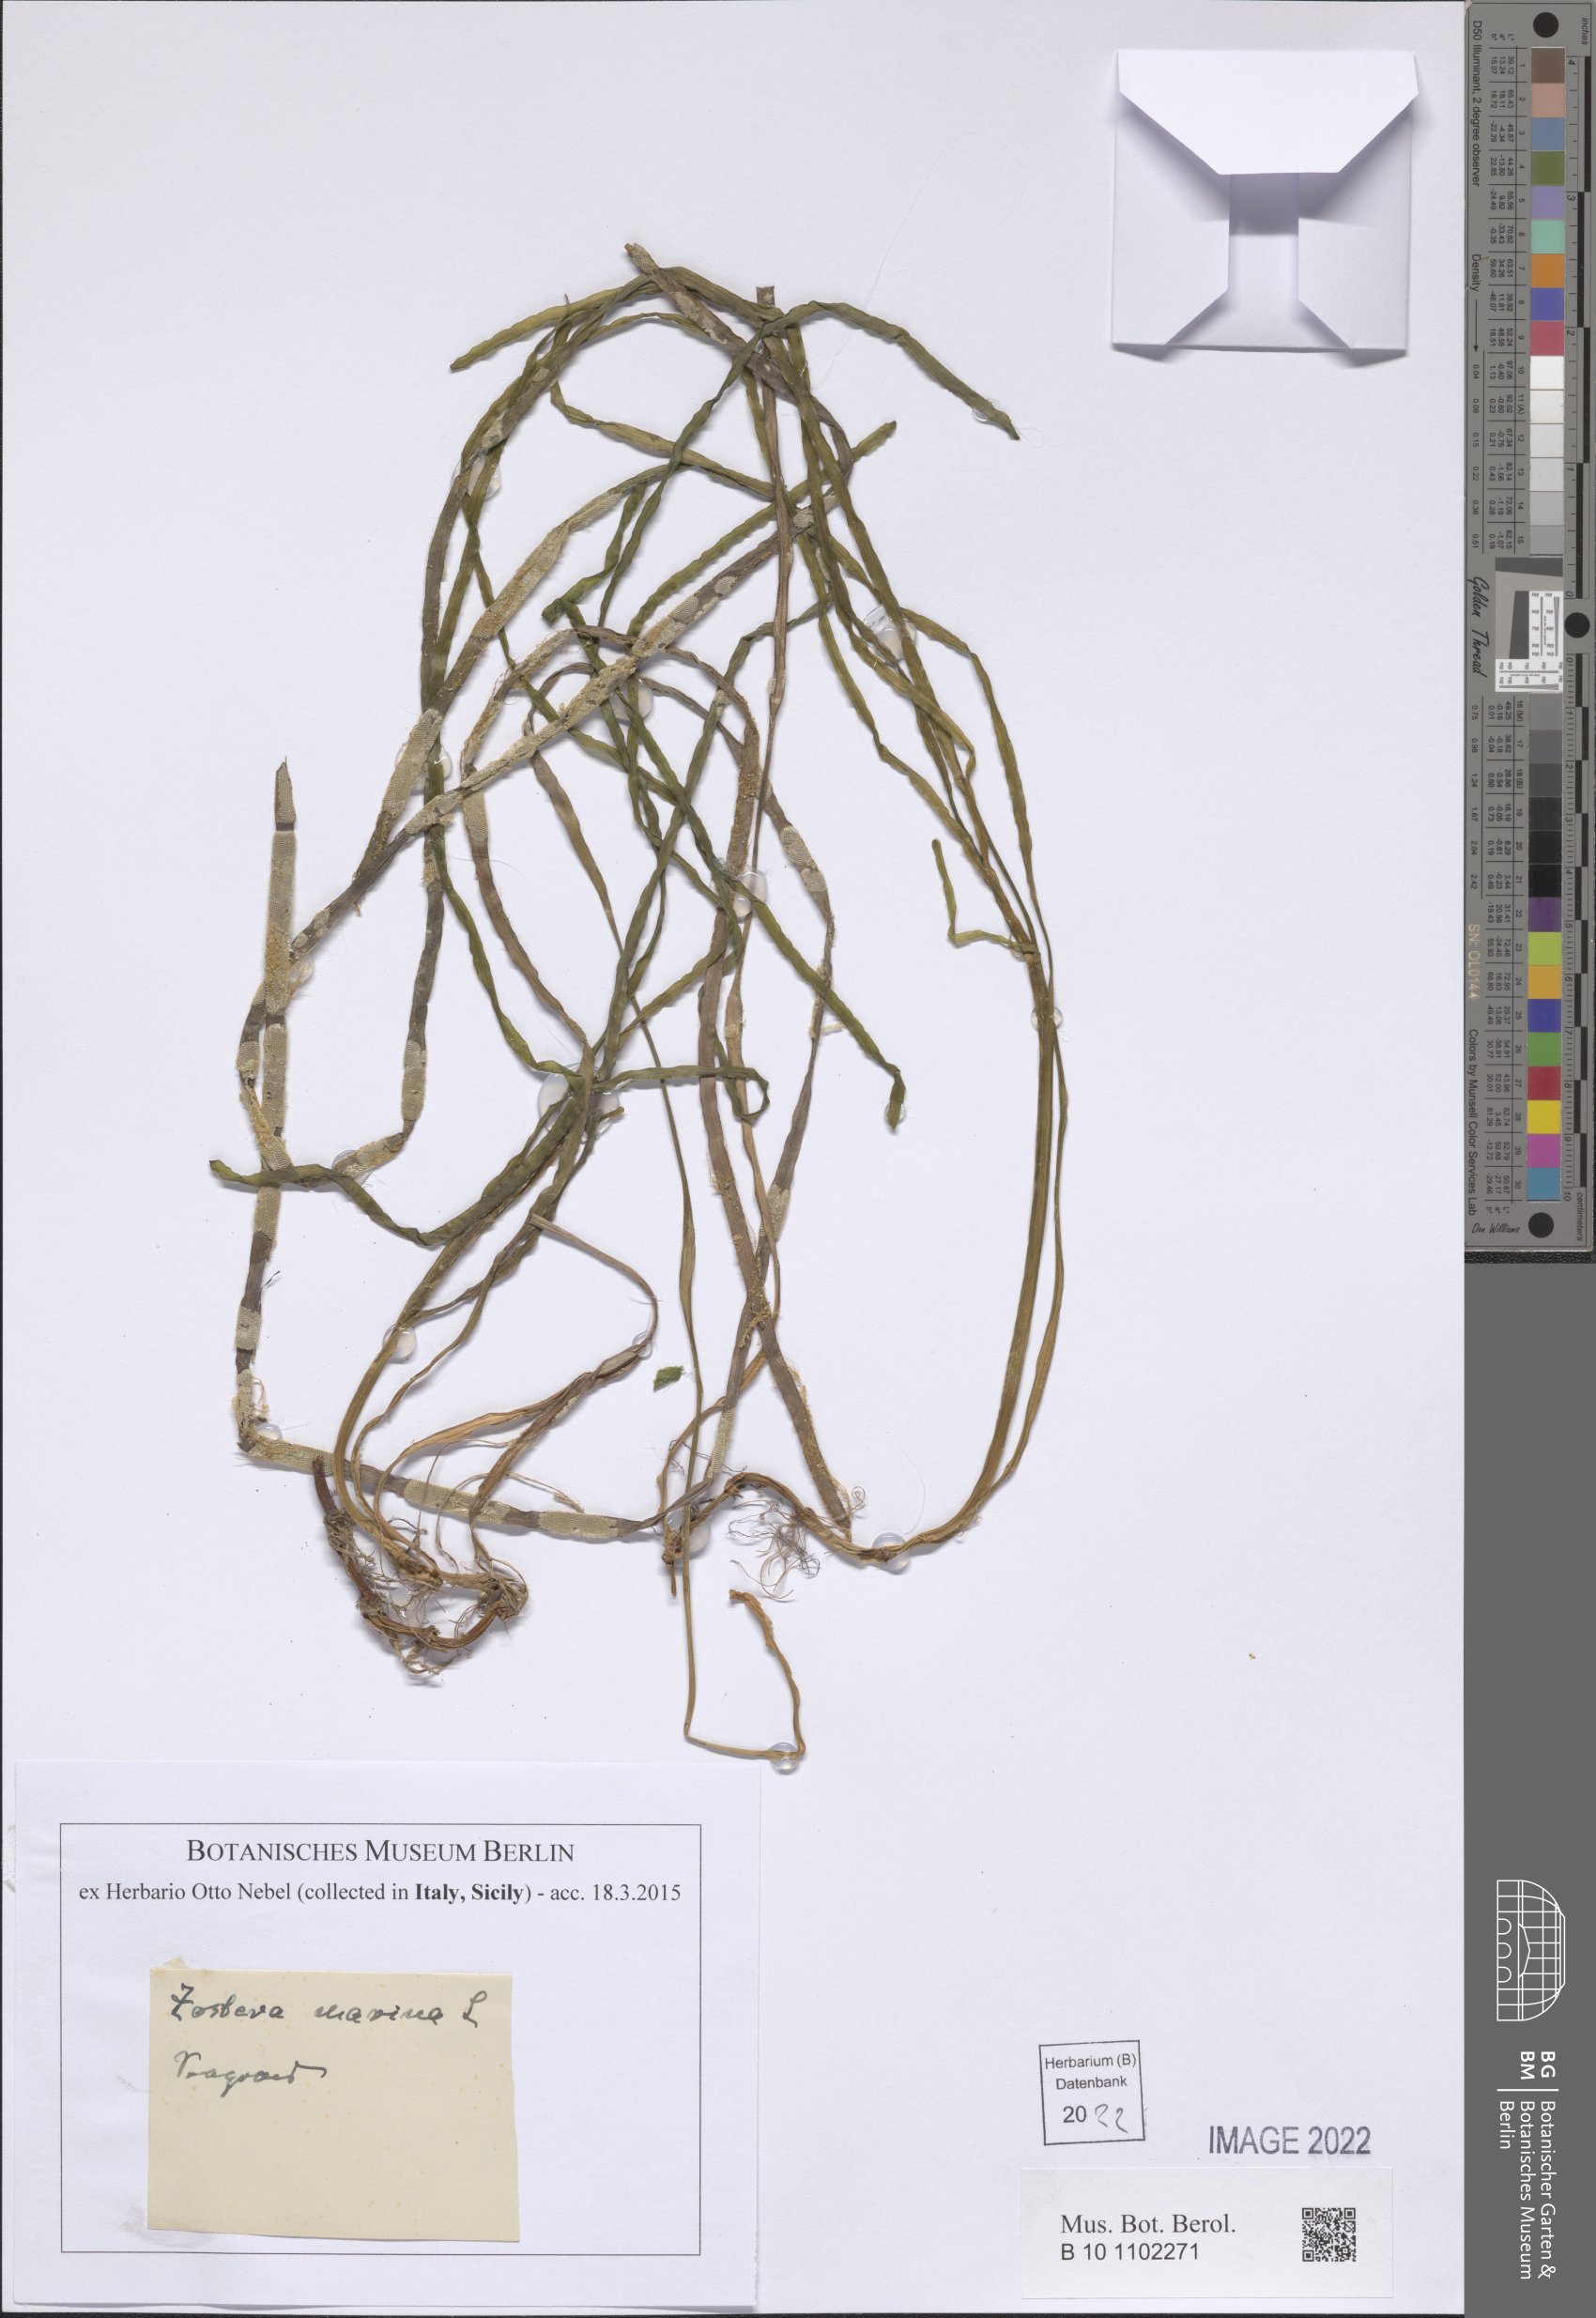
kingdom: Plantae
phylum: Tracheophyta
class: Liliopsida
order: Alismatales
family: Zosteraceae
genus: Zostera
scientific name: Zostera marina
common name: Eelgrass
